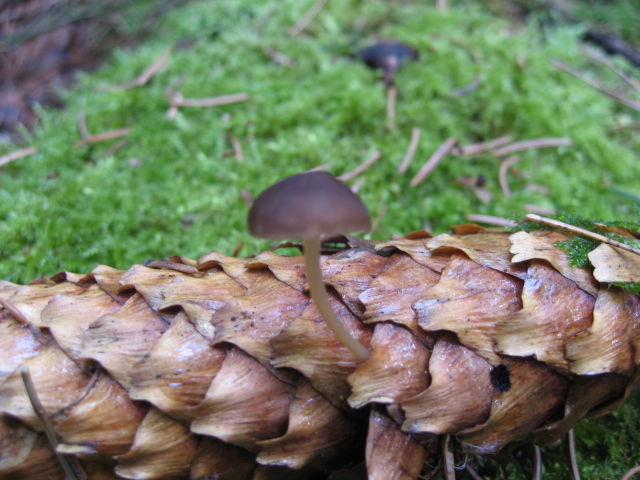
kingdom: Fungi
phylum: Basidiomycota
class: Agaricomycetes
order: Agaricales
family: Physalacriaceae
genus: Strobilurus
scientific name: Strobilurus esculentus
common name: gran-koglehat
